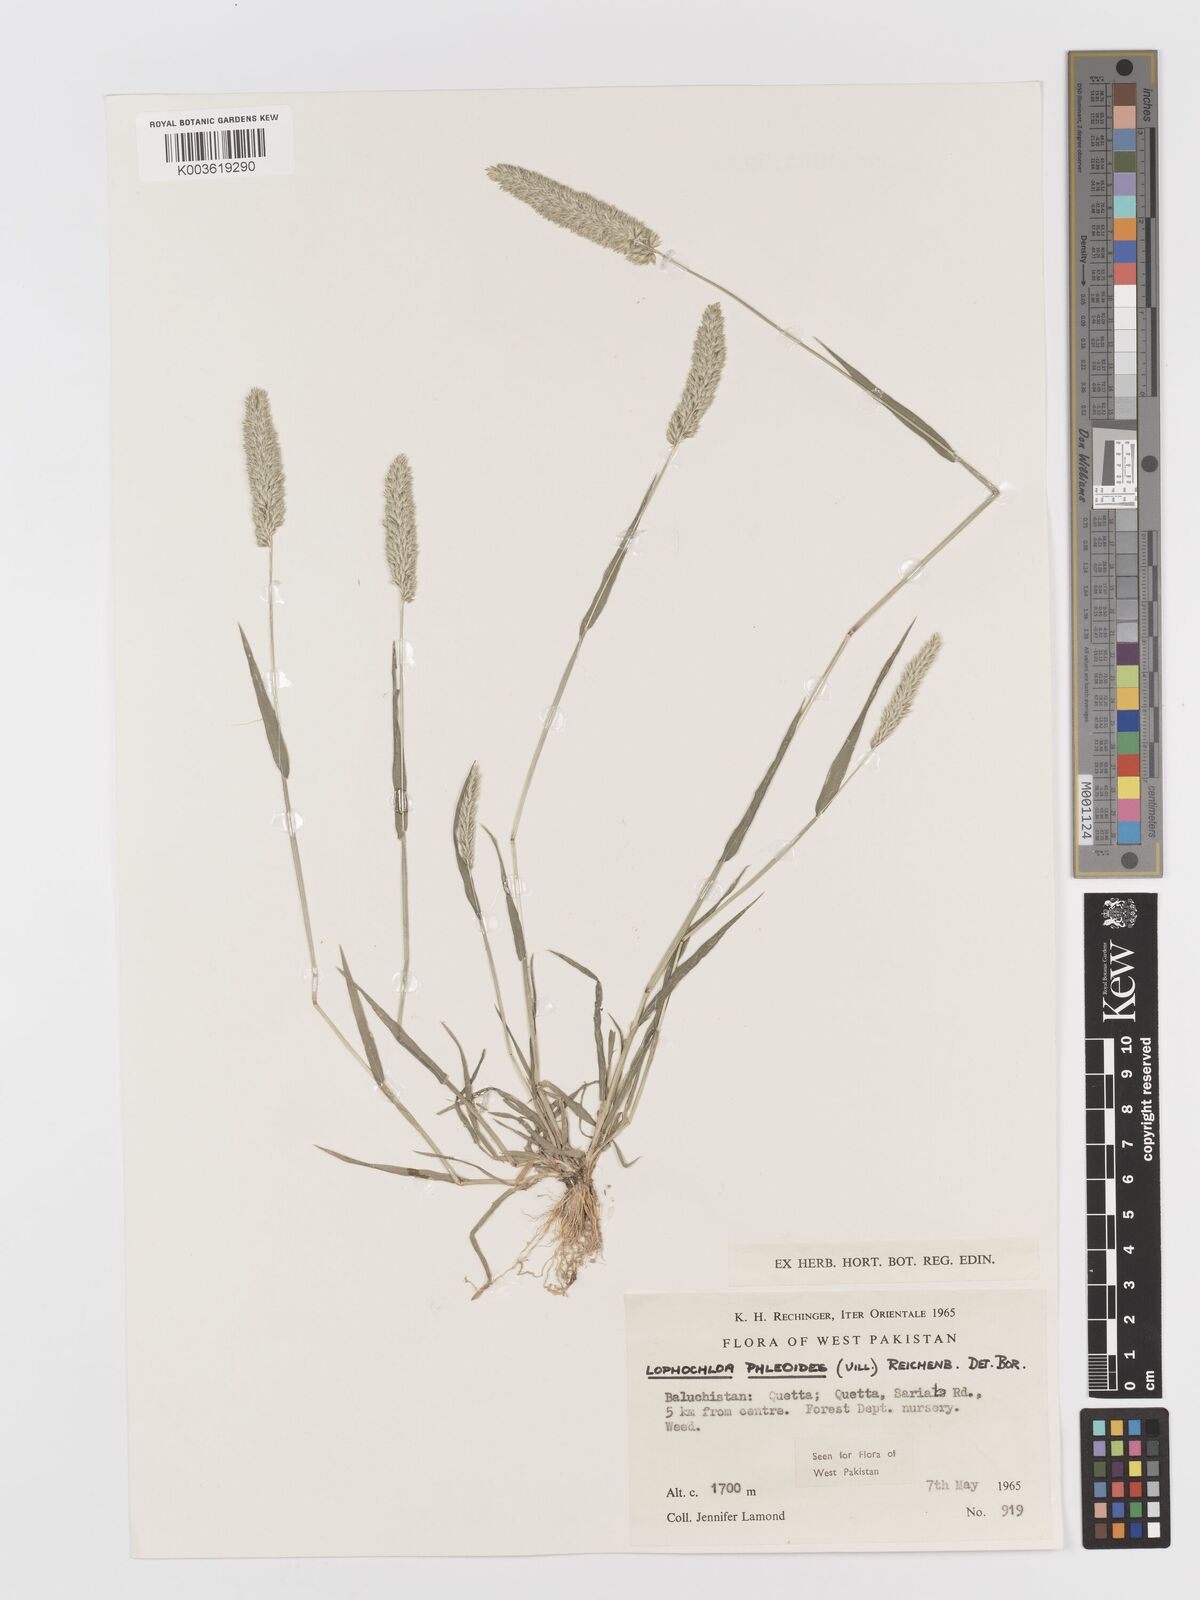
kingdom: Plantae
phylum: Tracheophyta
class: Liliopsida
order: Poales
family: Poaceae
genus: Rostraria
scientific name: Rostraria cristata
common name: Mediterranean hair-grass
